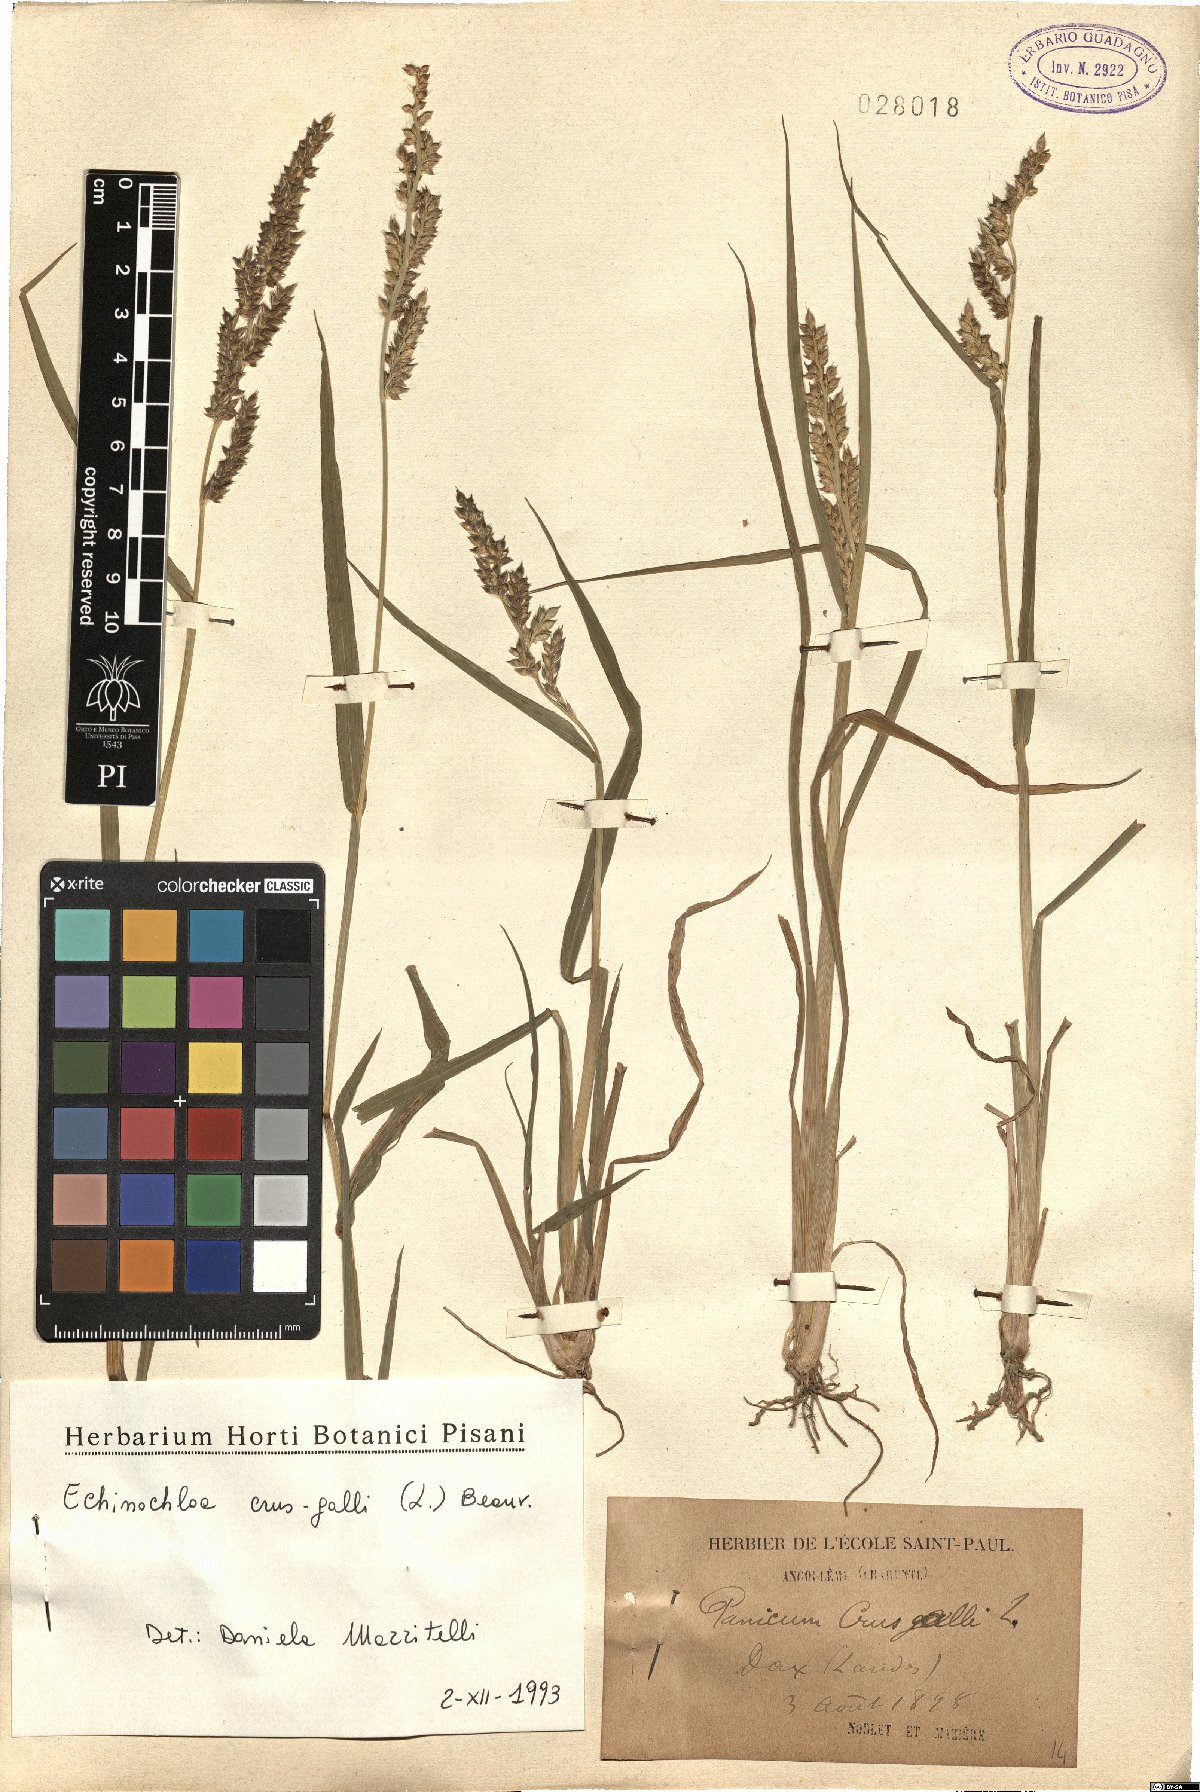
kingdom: Plantae
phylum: Tracheophyta
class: Liliopsida
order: Poales
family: Poaceae
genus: Echinochloa
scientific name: Echinochloa crus-galli
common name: Cockspur
